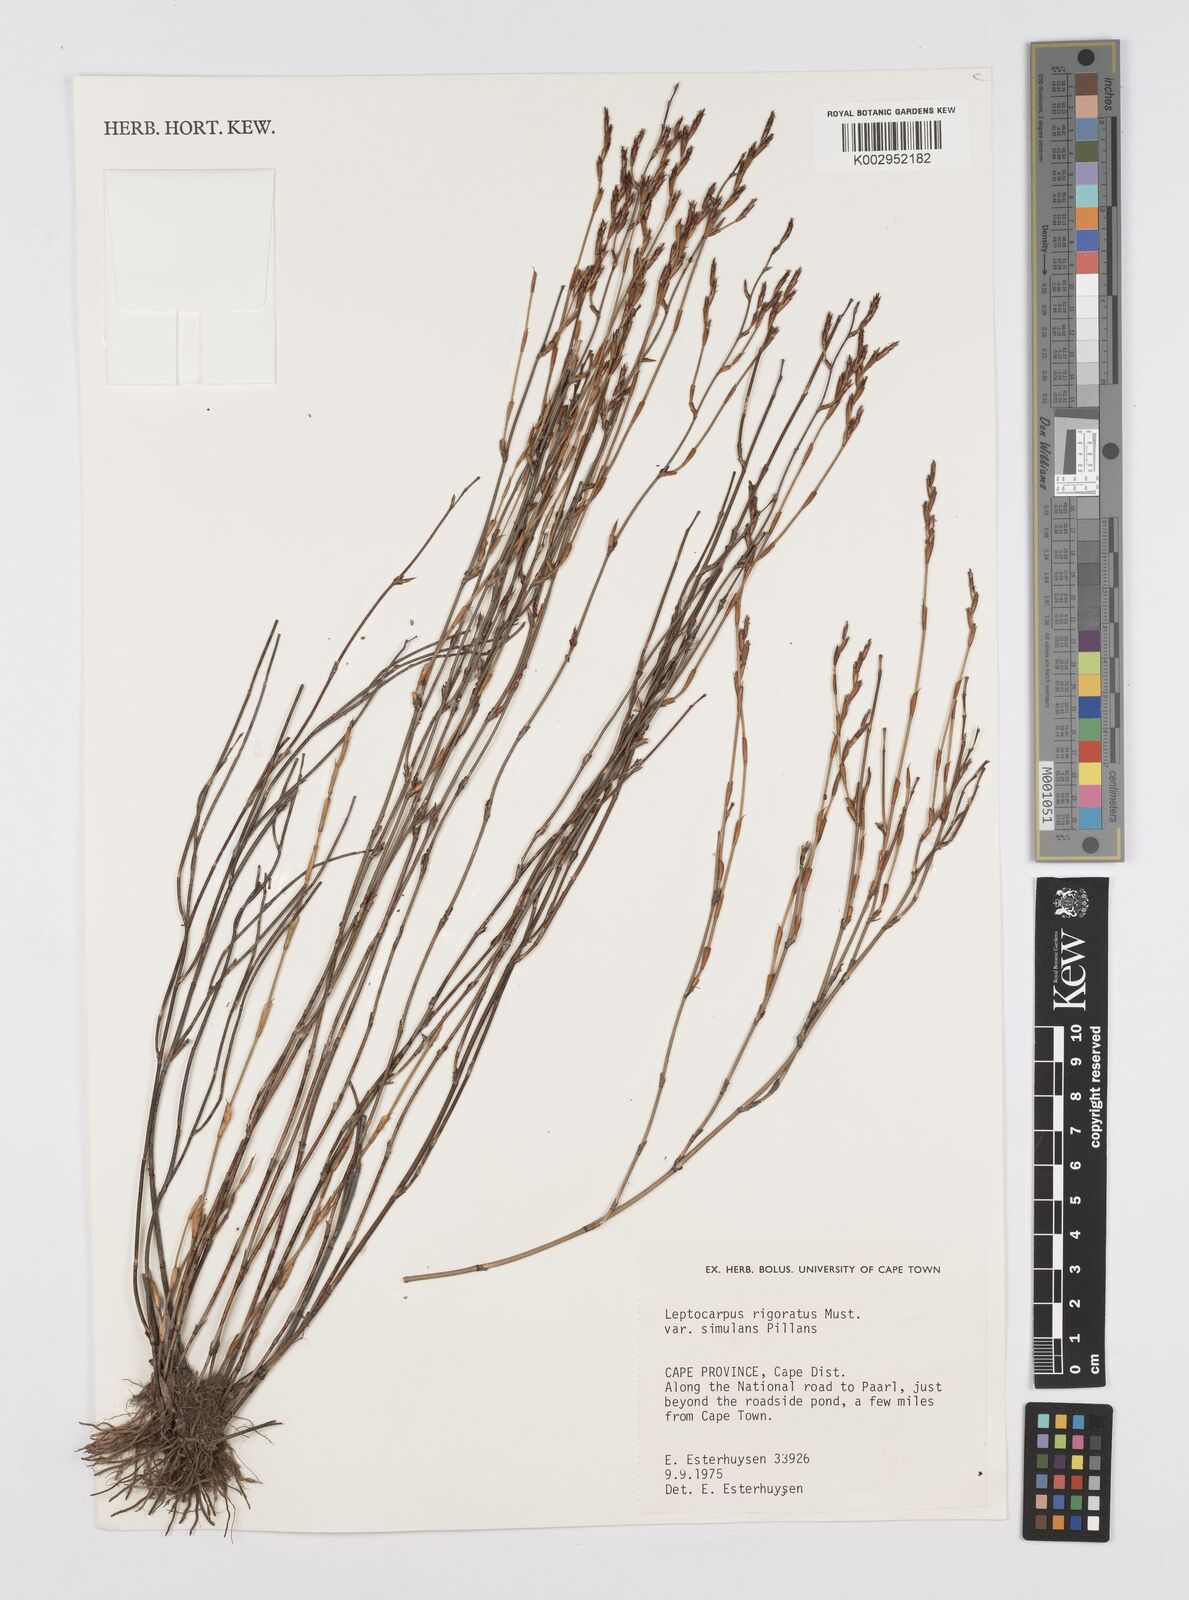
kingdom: Plantae
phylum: Tracheophyta
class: Liliopsida
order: Poales
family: Restionaceae
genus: Restio
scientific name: Restio rigoratus
